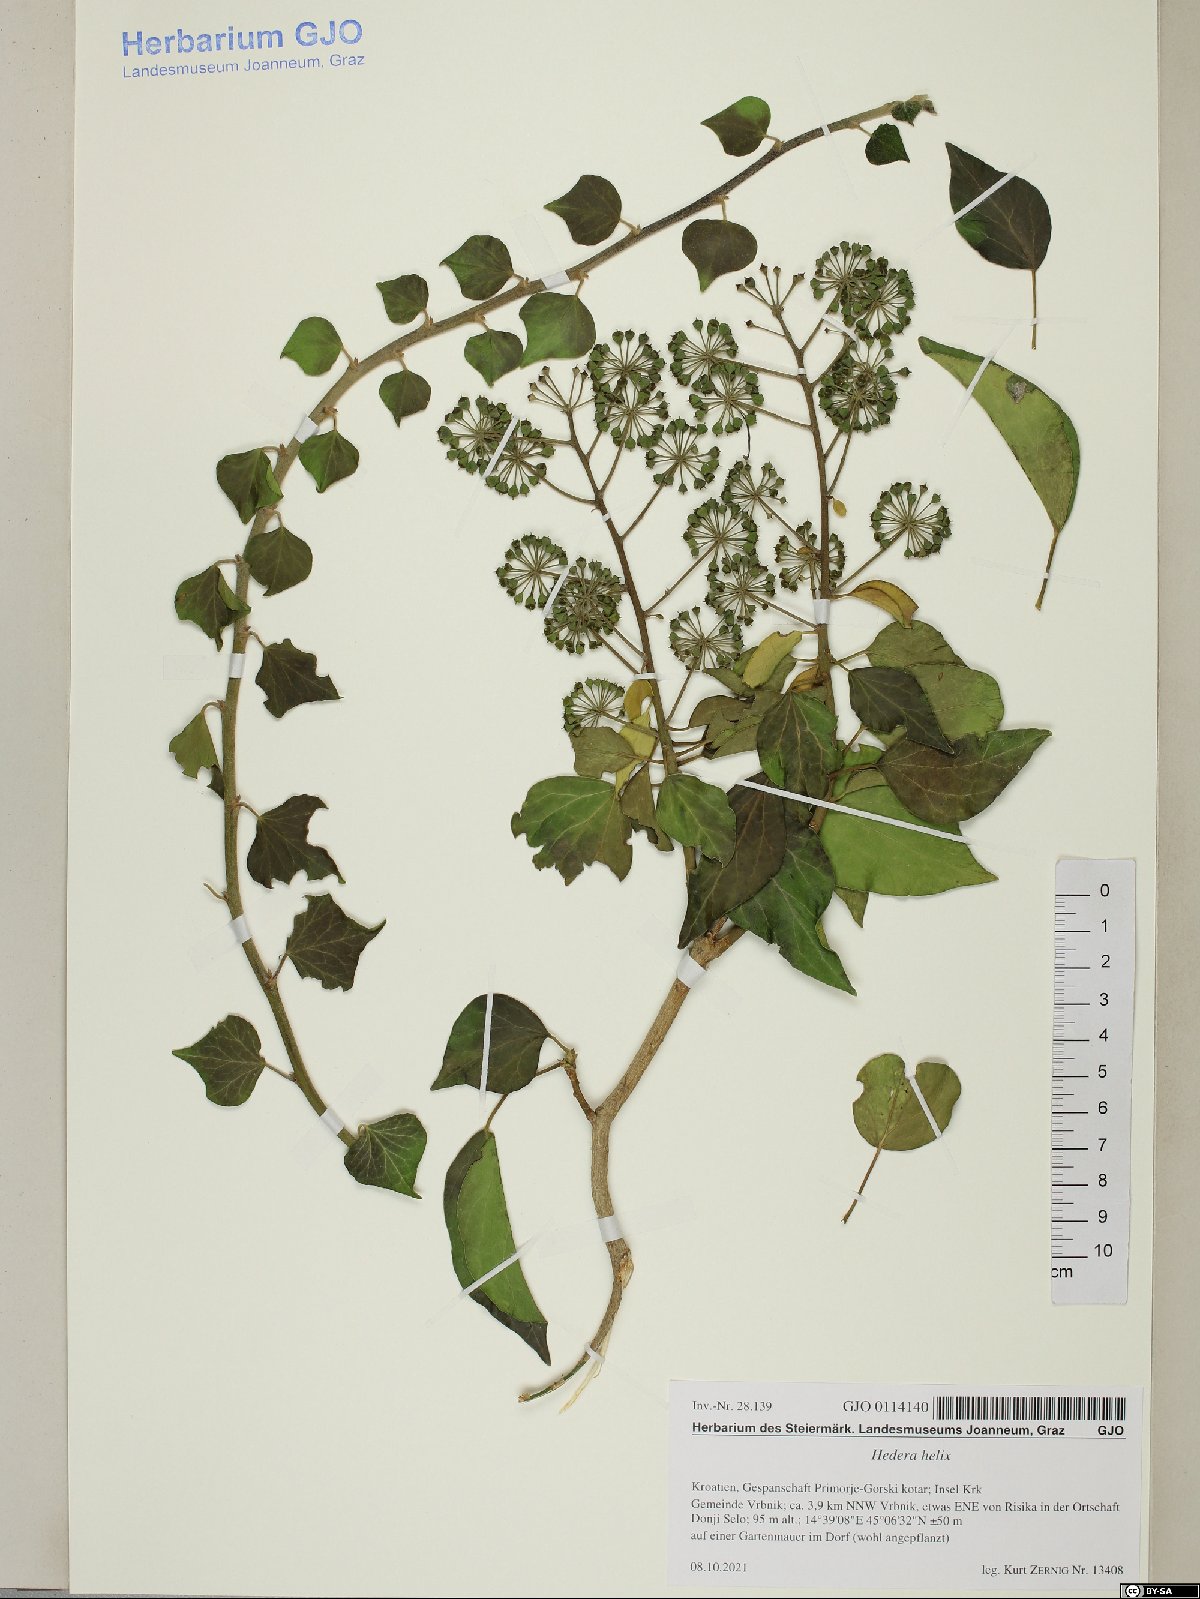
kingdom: Plantae
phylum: Tracheophyta
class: Magnoliopsida
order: Apiales
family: Araliaceae
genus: Hedera
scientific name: Hedera helix
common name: Ivy
